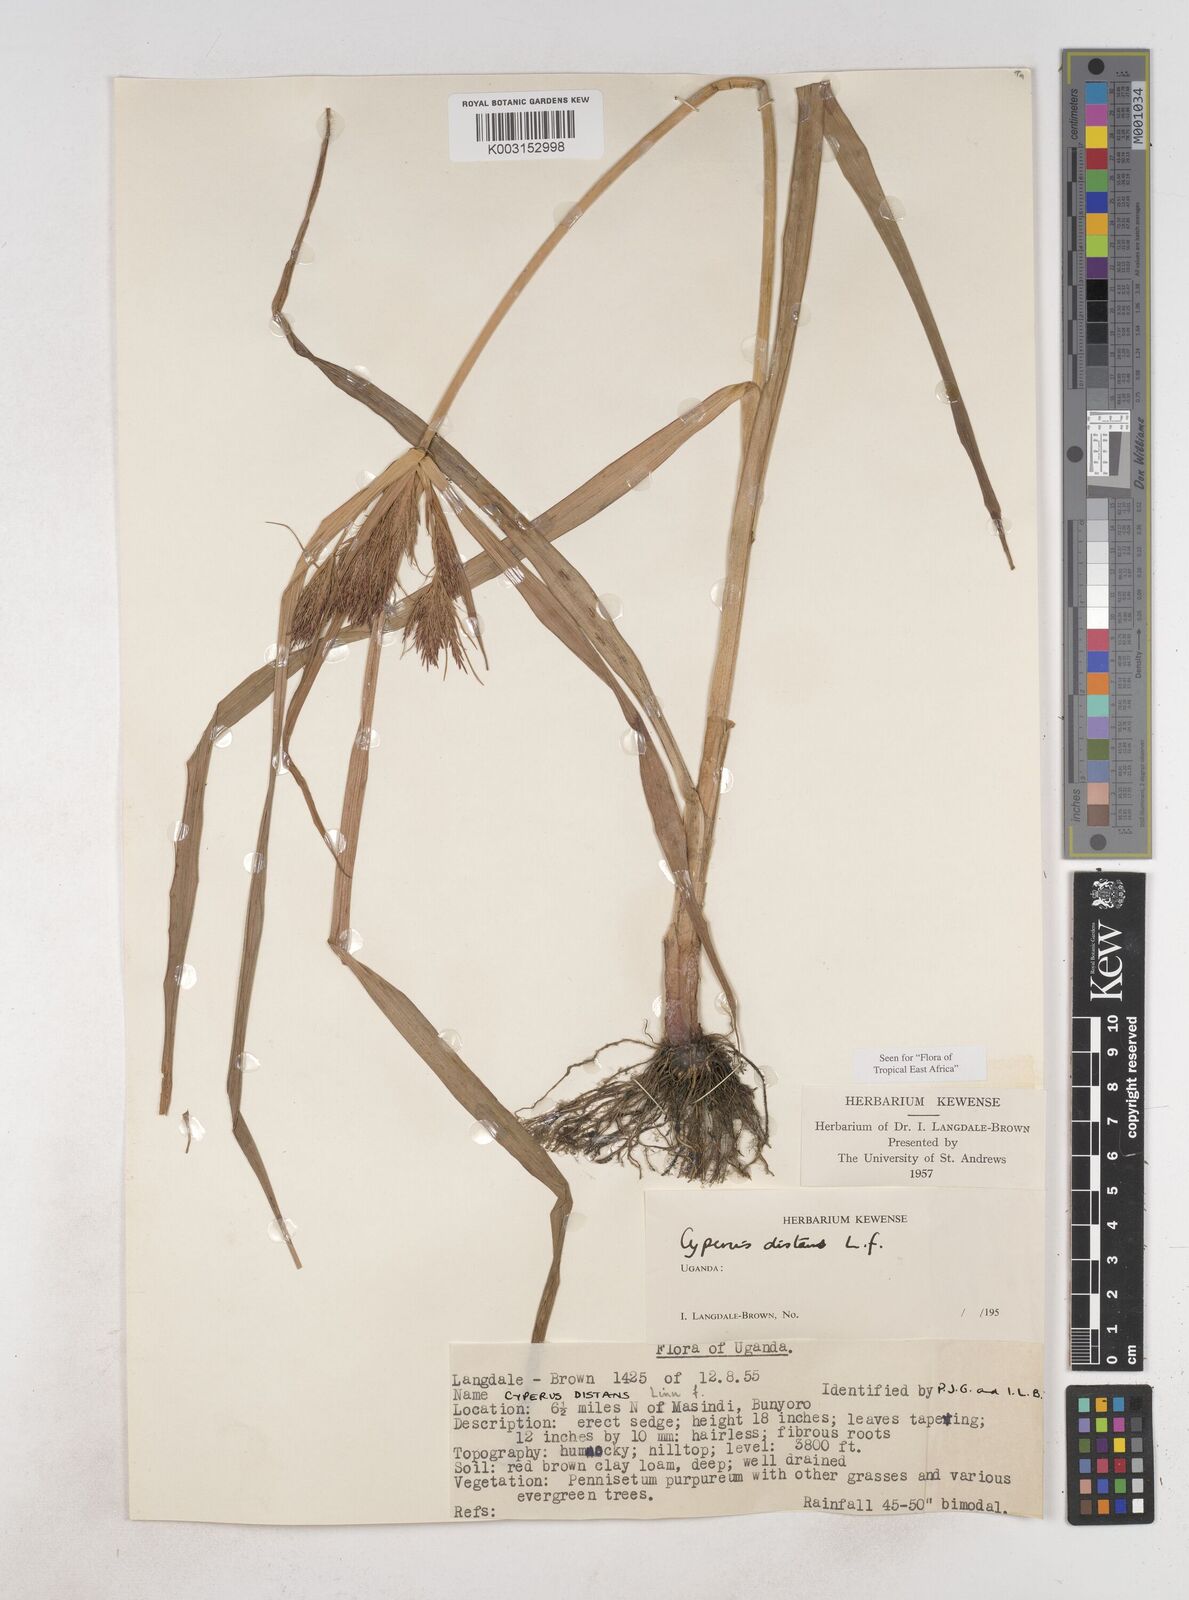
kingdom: Plantae
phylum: Tracheophyta
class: Liliopsida
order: Poales
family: Cyperaceae
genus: Cyperus
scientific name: Cyperus distans
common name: Slender cyperus
